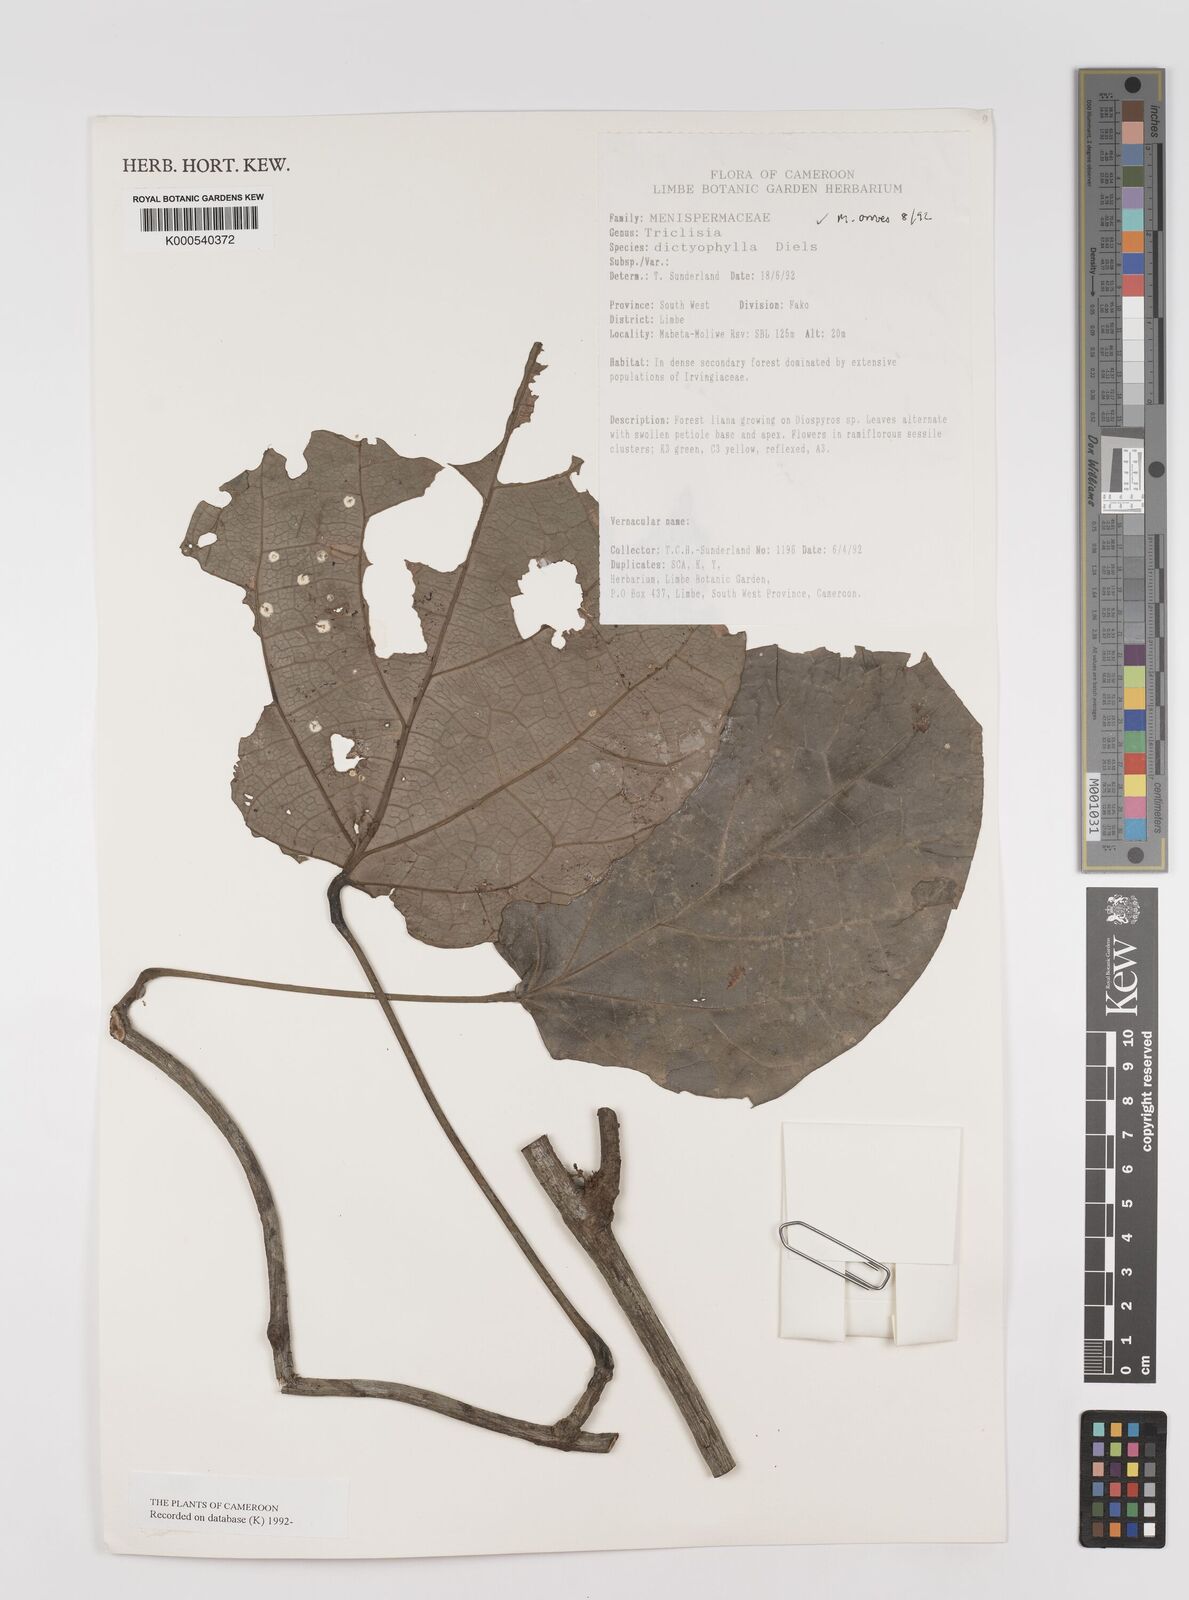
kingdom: Plantae
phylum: Tracheophyta
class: Magnoliopsida
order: Ranunculales
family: Menispermaceae
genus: Triclisia
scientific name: Triclisia dictyophylla
